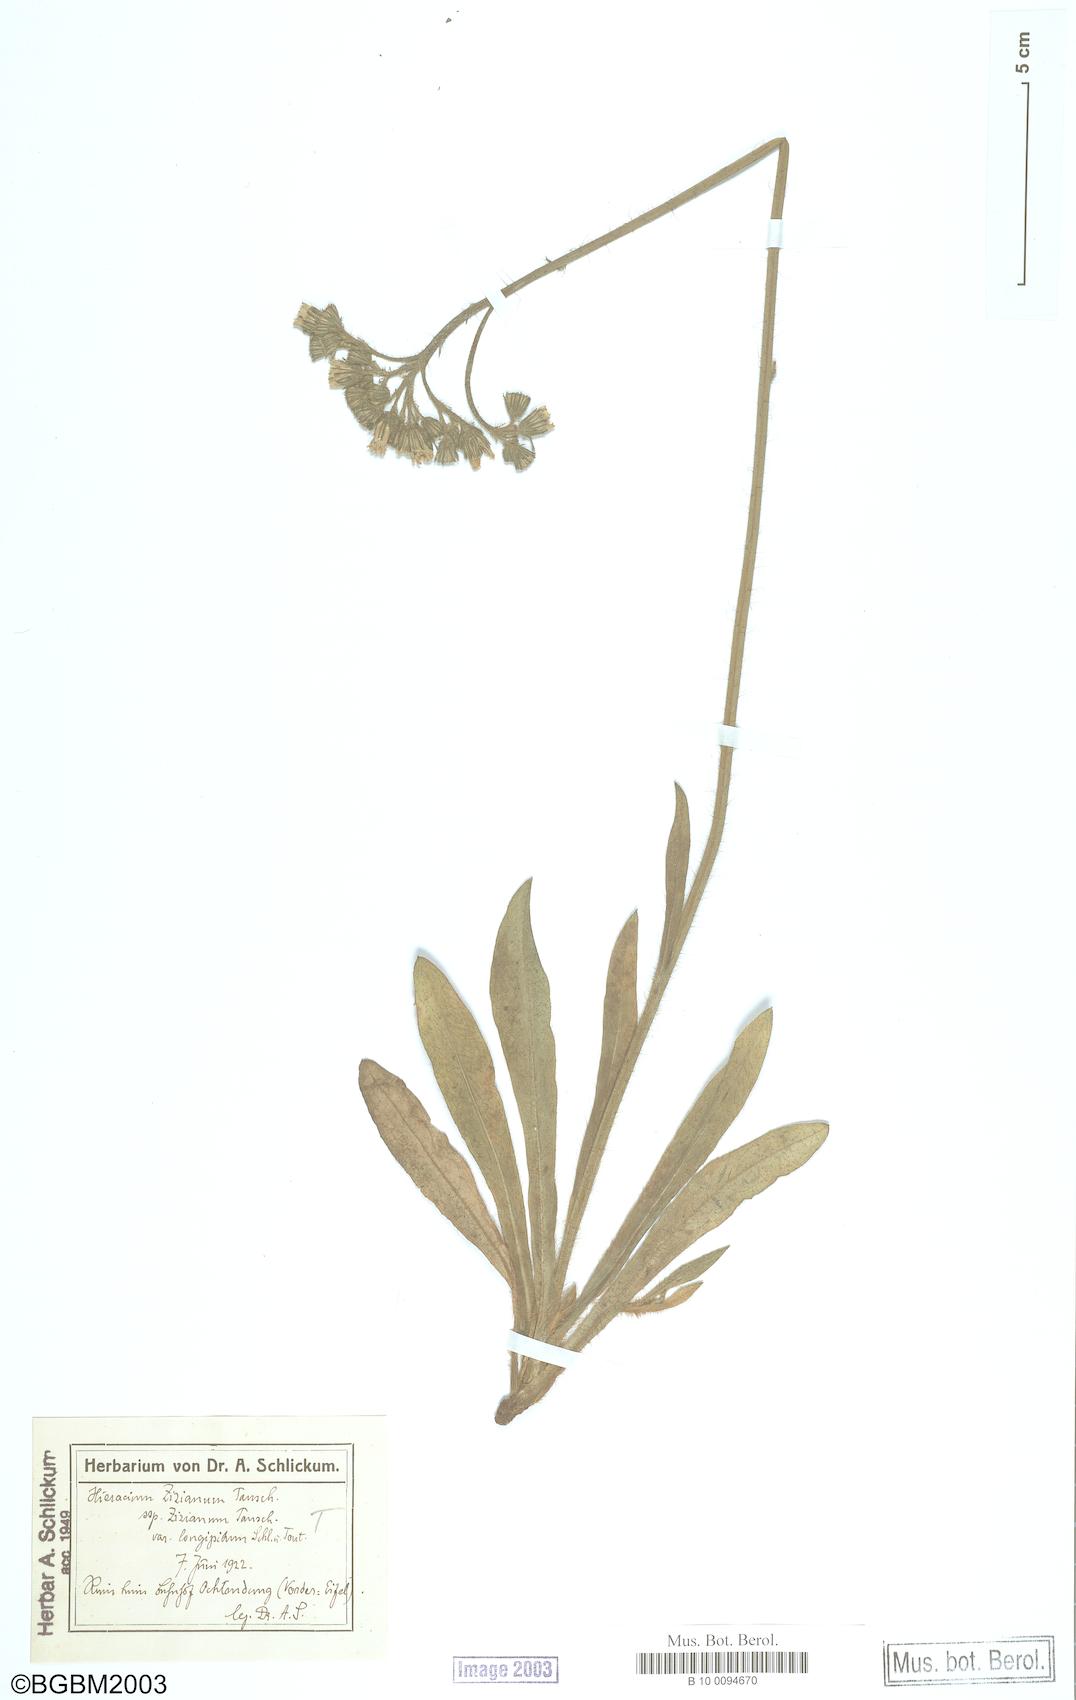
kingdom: Plantae
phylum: Tracheophyta
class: Magnoliopsida
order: Asterales
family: Asteraceae
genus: Pilosella
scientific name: Pilosella ziziana
